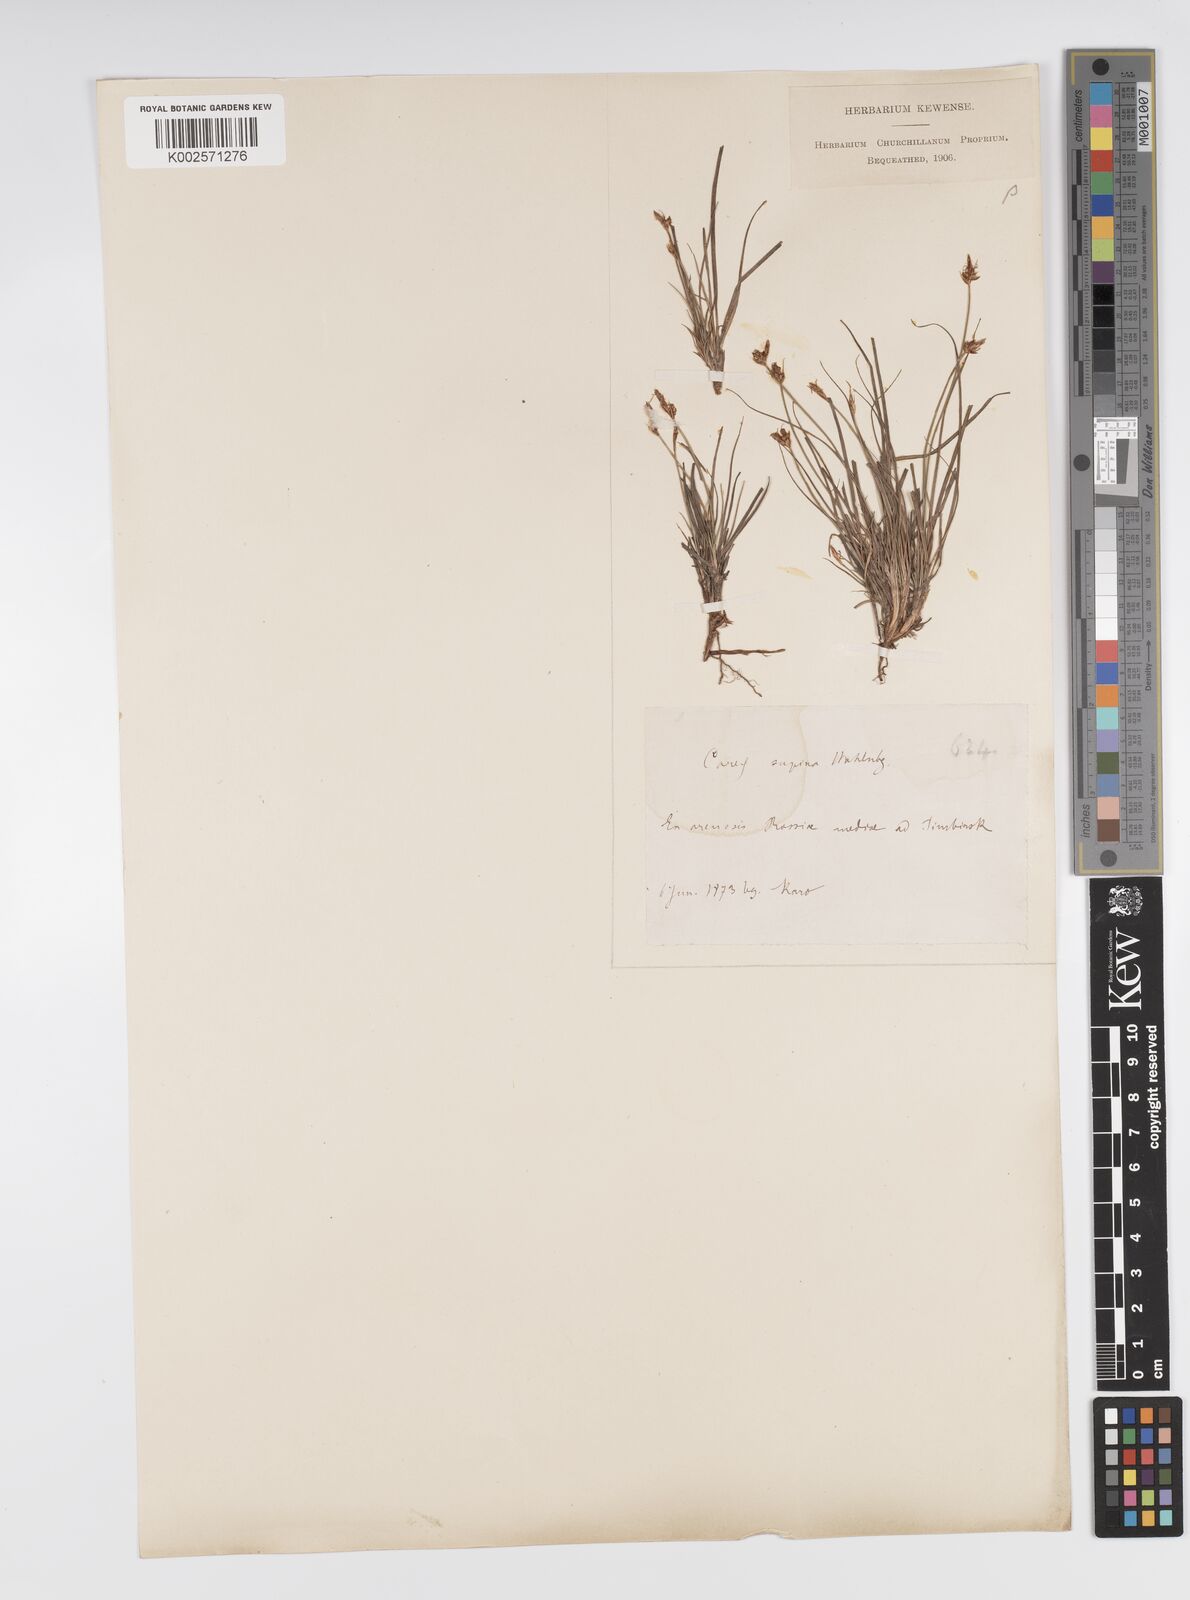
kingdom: Plantae
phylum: Tracheophyta
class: Liliopsida
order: Poales
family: Cyperaceae
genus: Carex
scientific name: Carex supina
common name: Lying-back sedge
